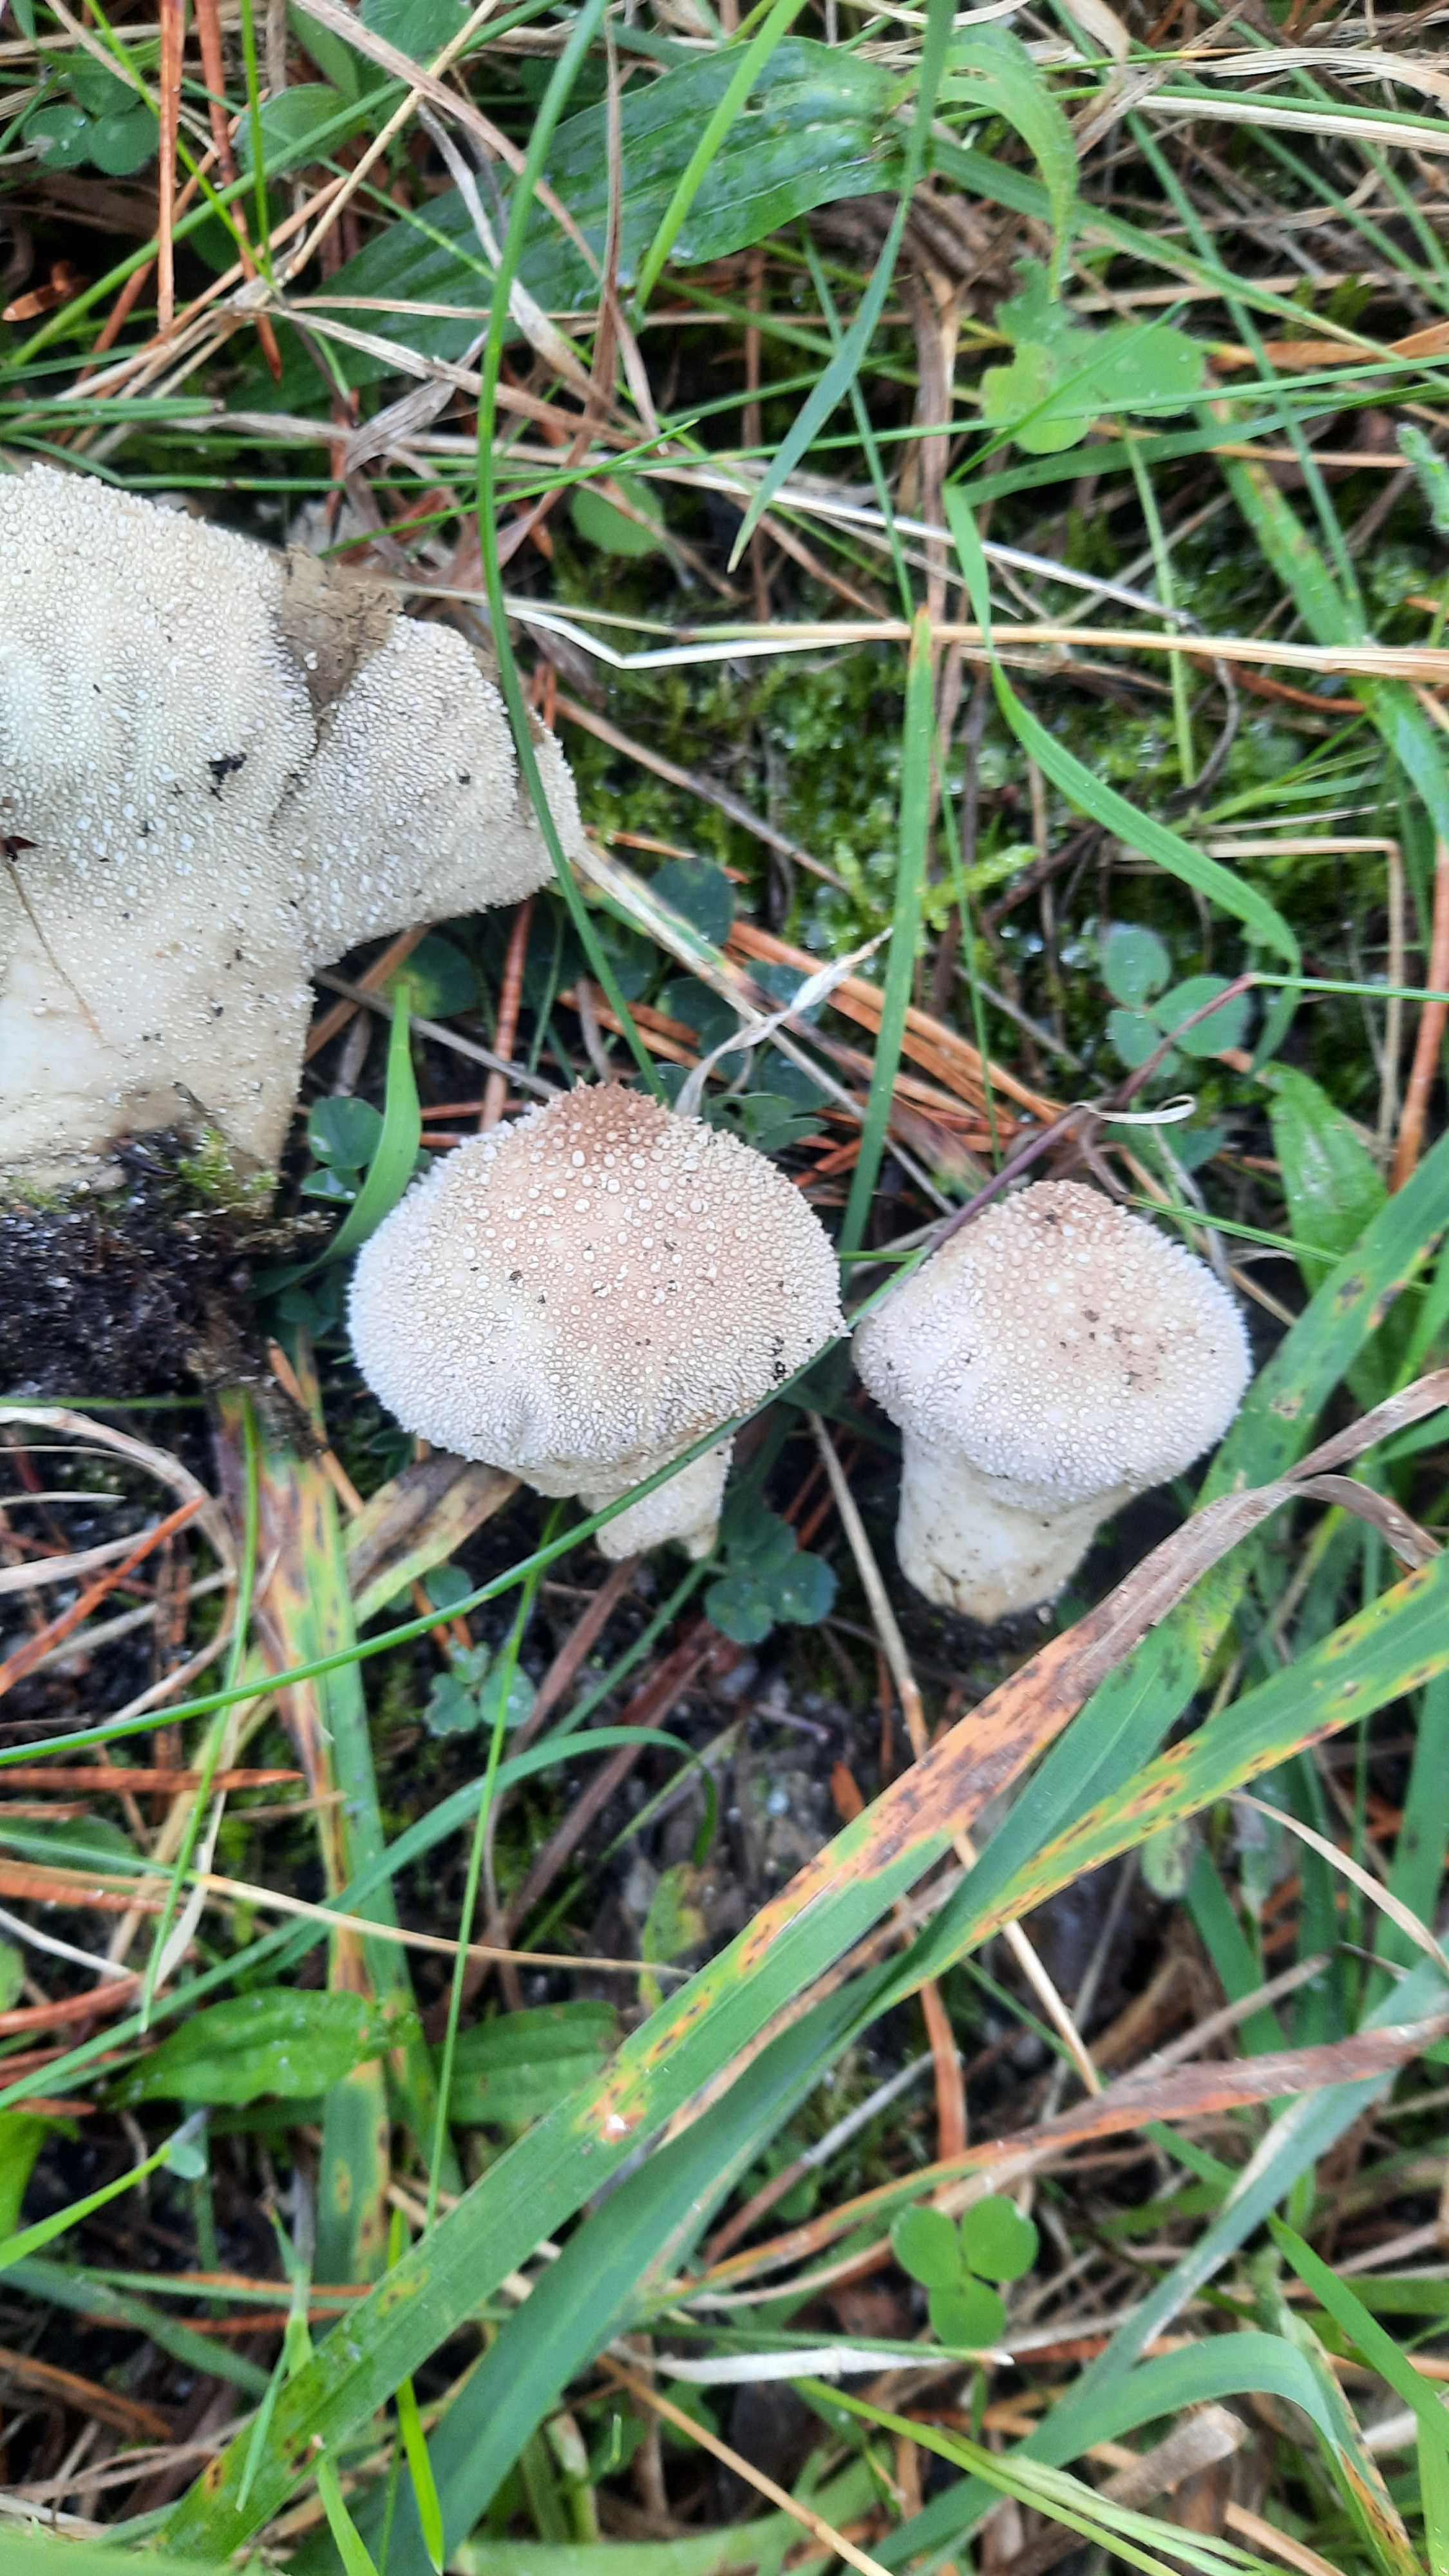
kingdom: Fungi
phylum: Basidiomycota
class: Agaricomycetes
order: Agaricales
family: Lycoperdaceae
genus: Lycoperdon
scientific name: Lycoperdon perlatum
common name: krystal-støvbold
